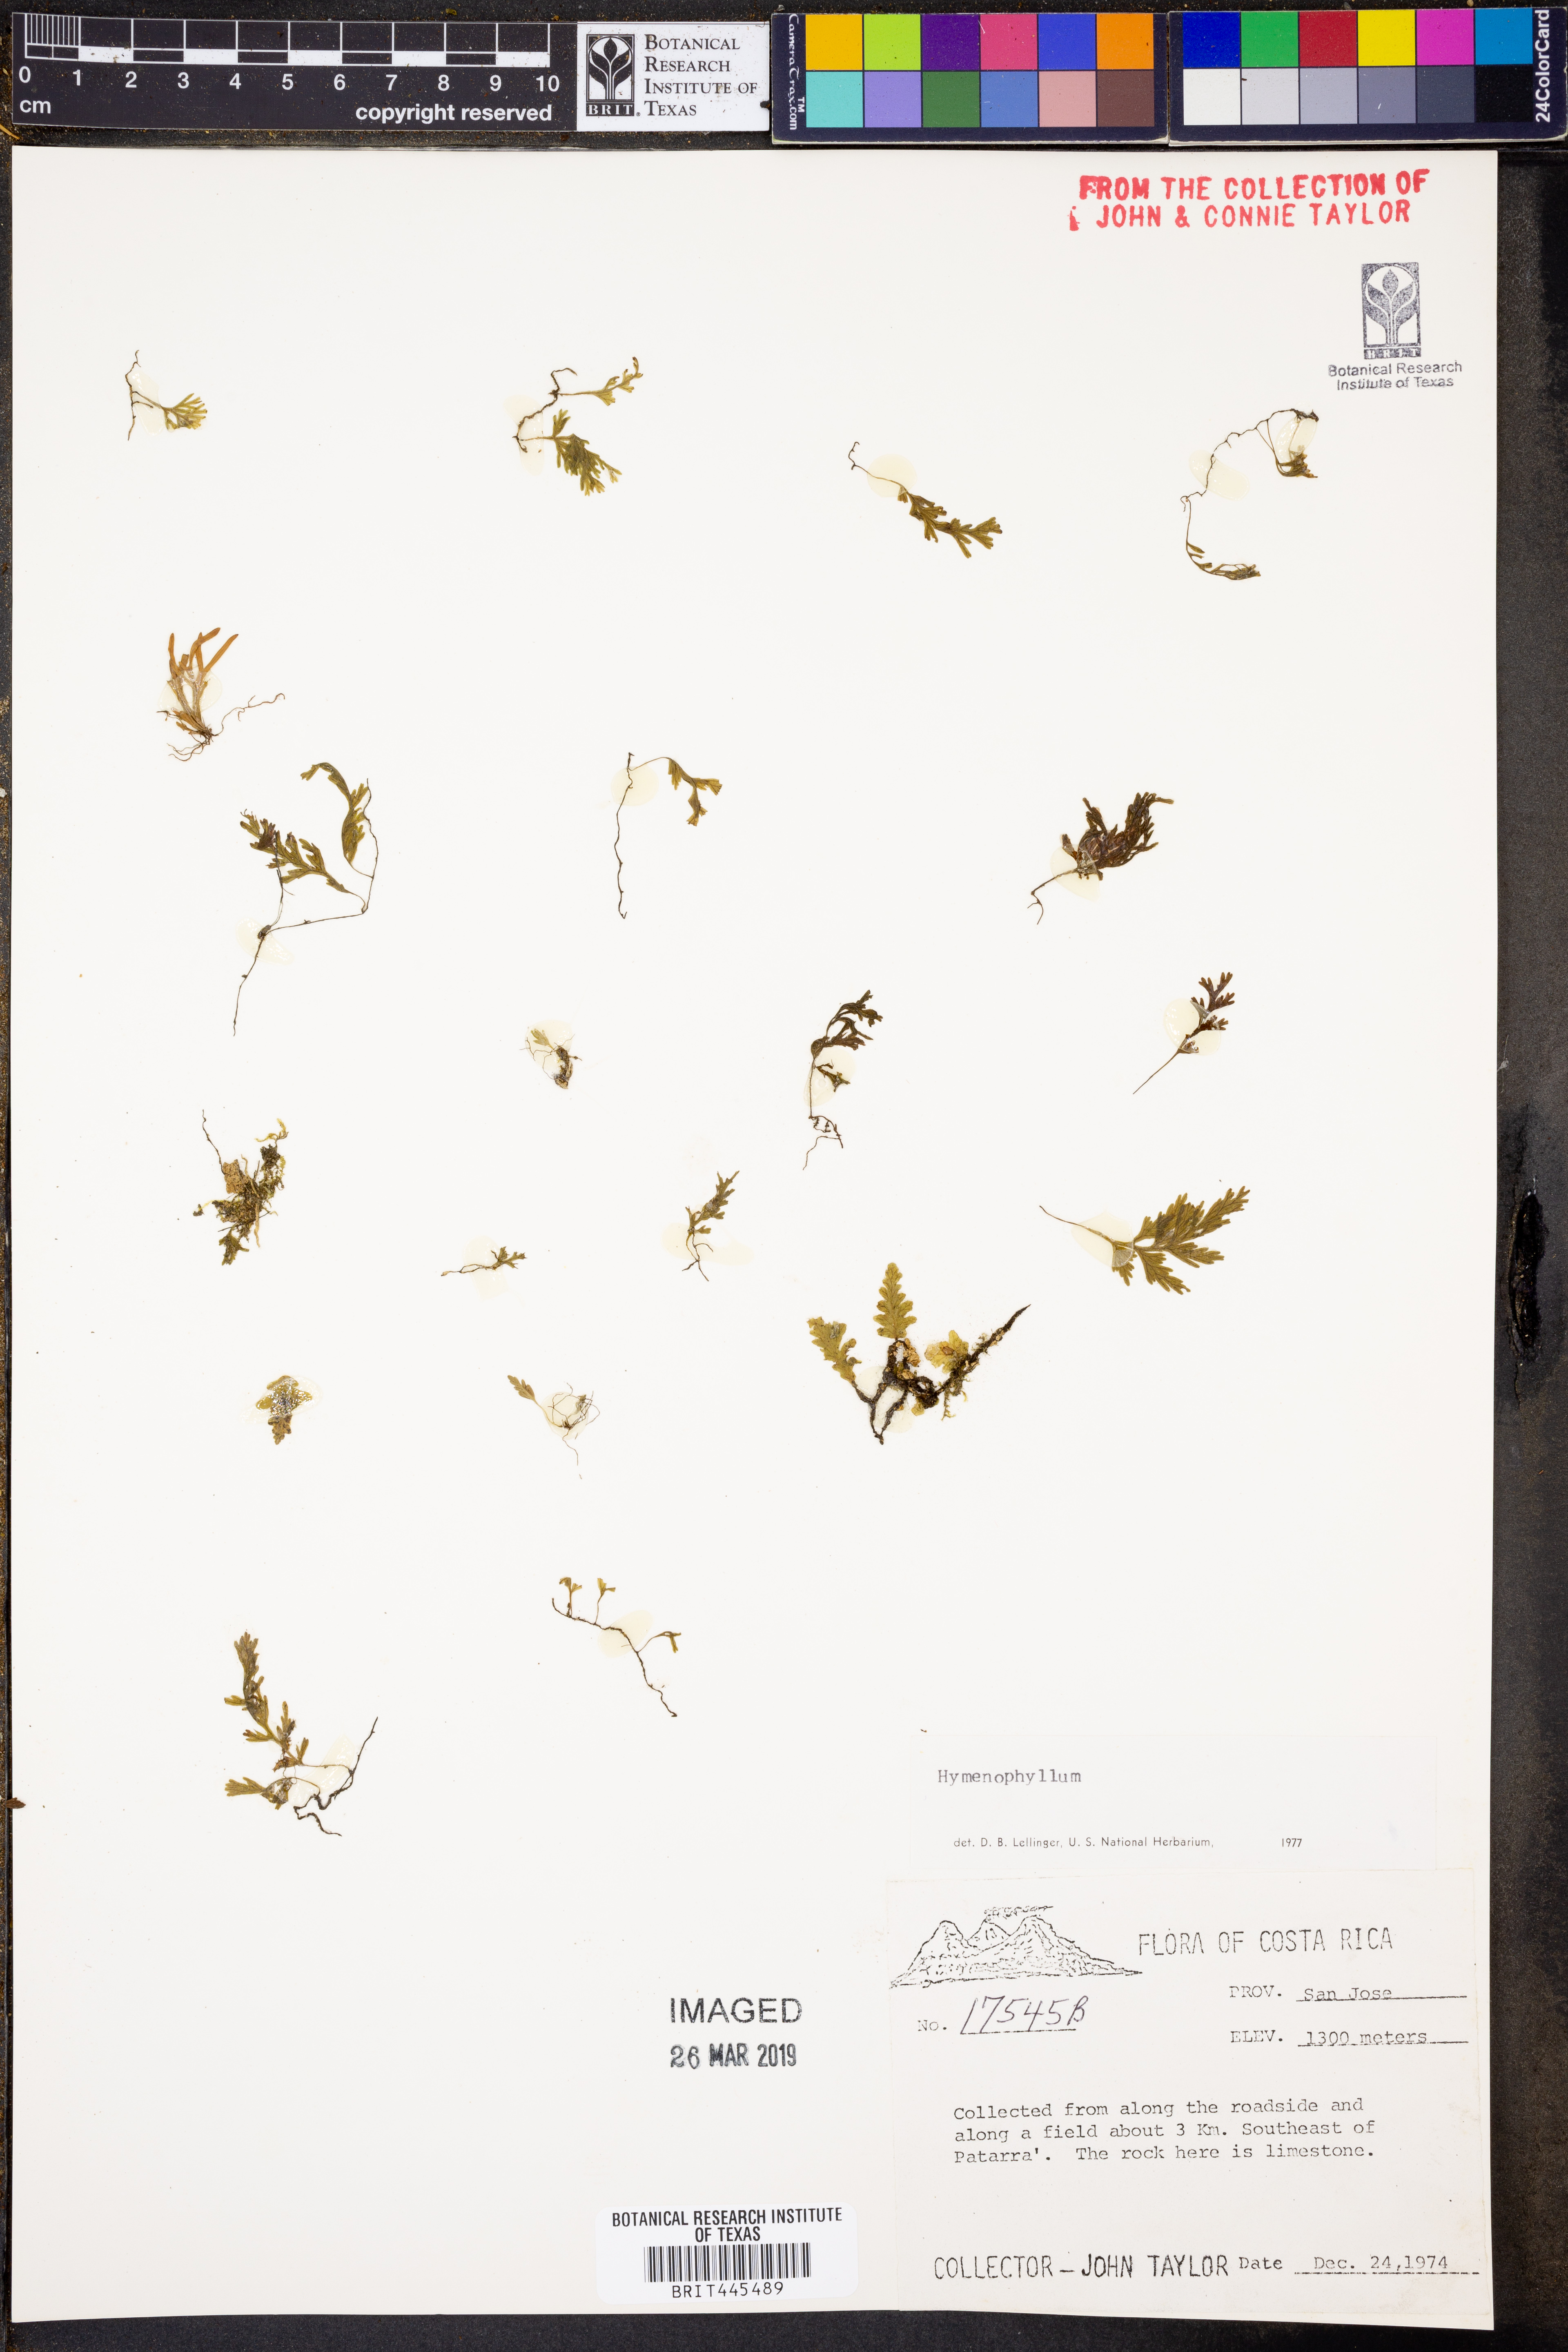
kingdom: Plantae
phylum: Tracheophyta
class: Polypodiopsida
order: Hymenophyllales
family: Hymenophyllaceae
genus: Hymenophyllum
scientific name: Hymenophyllum
